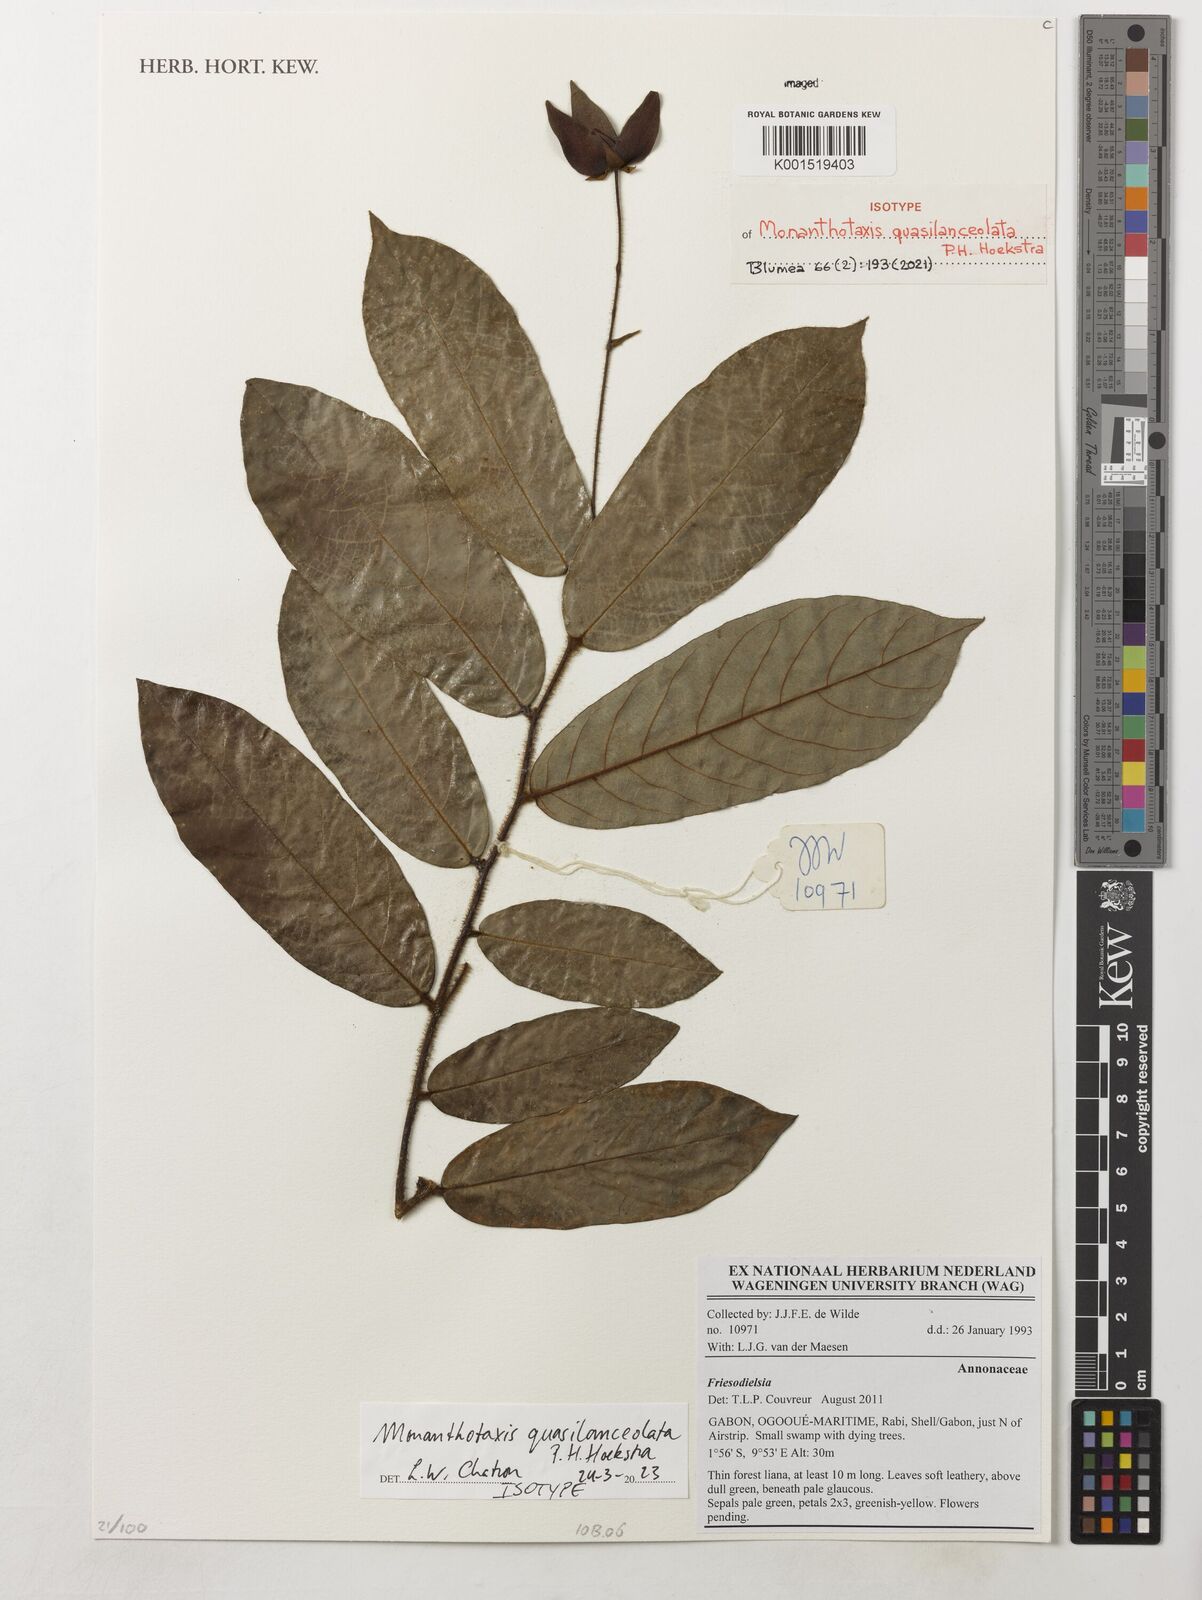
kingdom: Plantae
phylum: Tracheophyta
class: Magnoliopsida
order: Magnoliales
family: Annonaceae
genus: Monanthotaxis
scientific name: Monanthotaxis
